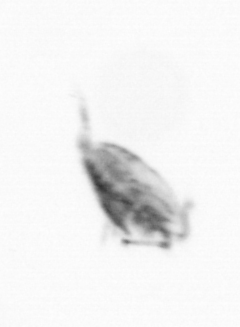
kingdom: Animalia
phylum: Arthropoda
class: Copepoda
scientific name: Copepoda
